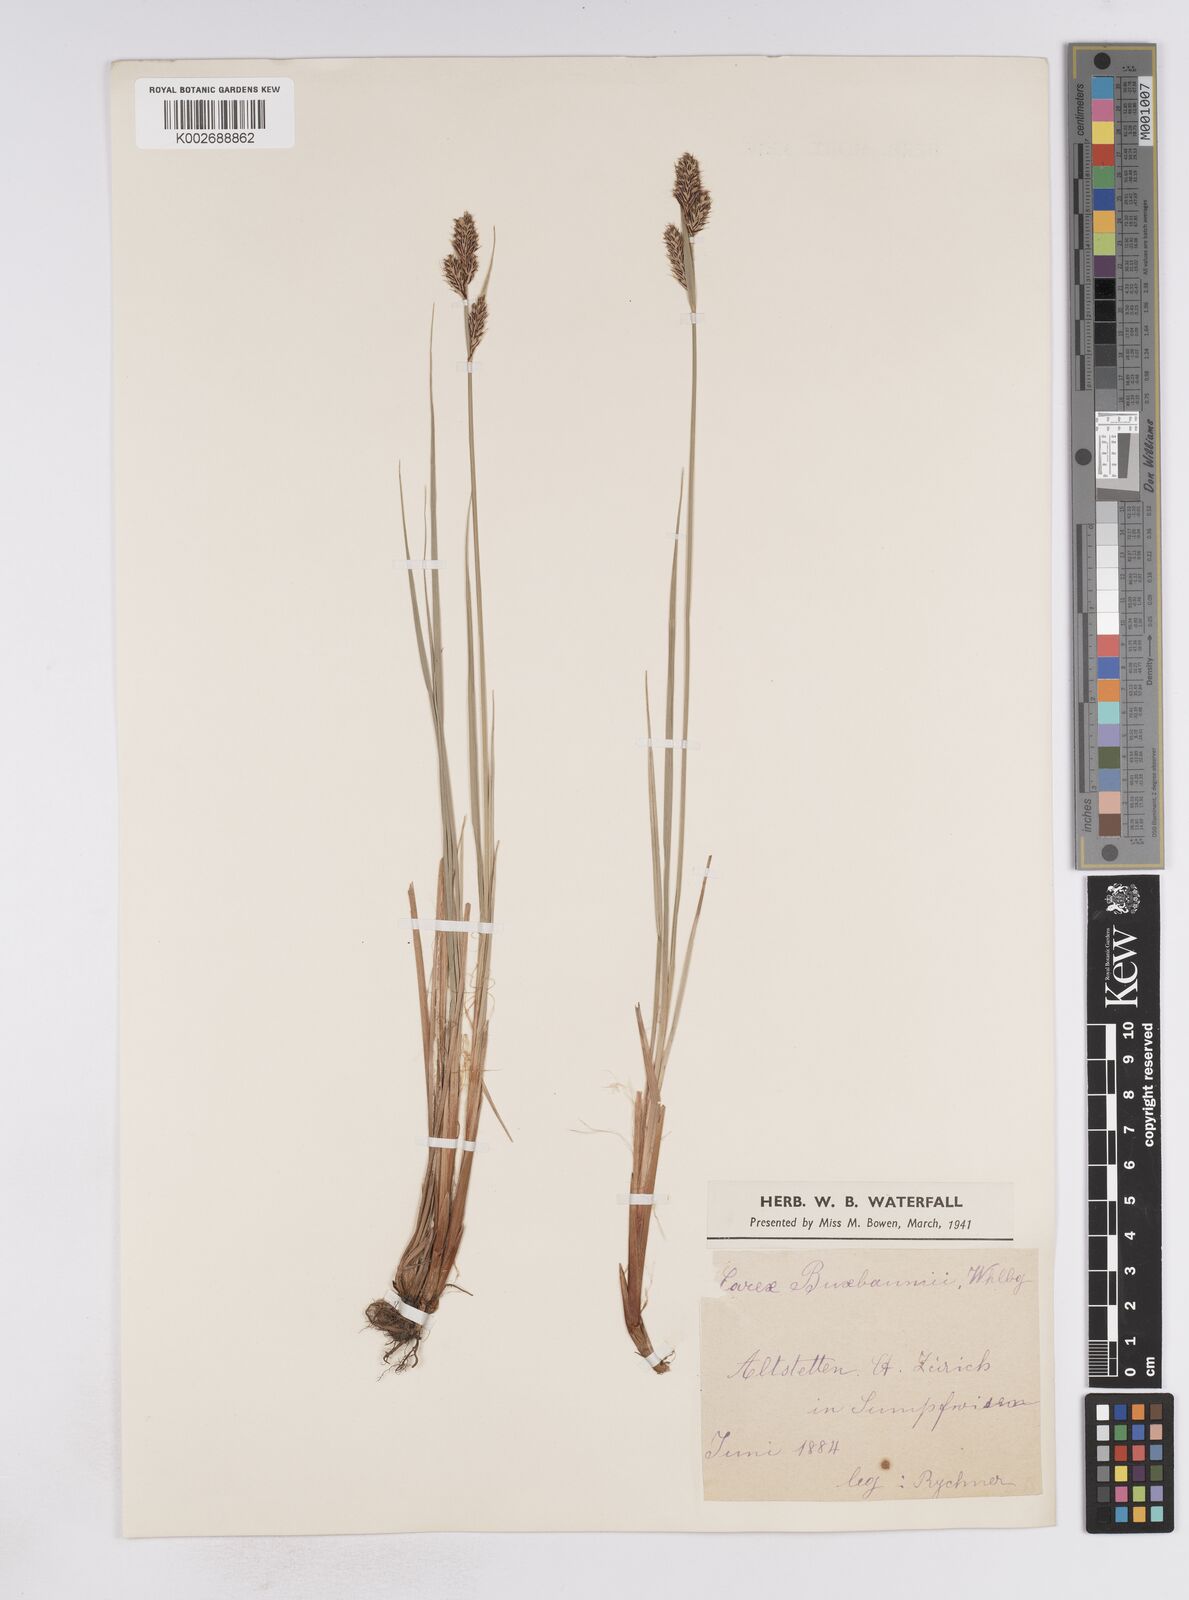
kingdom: Plantae
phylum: Tracheophyta
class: Liliopsida
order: Poales
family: Cyperaceae
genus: Carex
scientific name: Carex buxbaumii
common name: Club sedge
